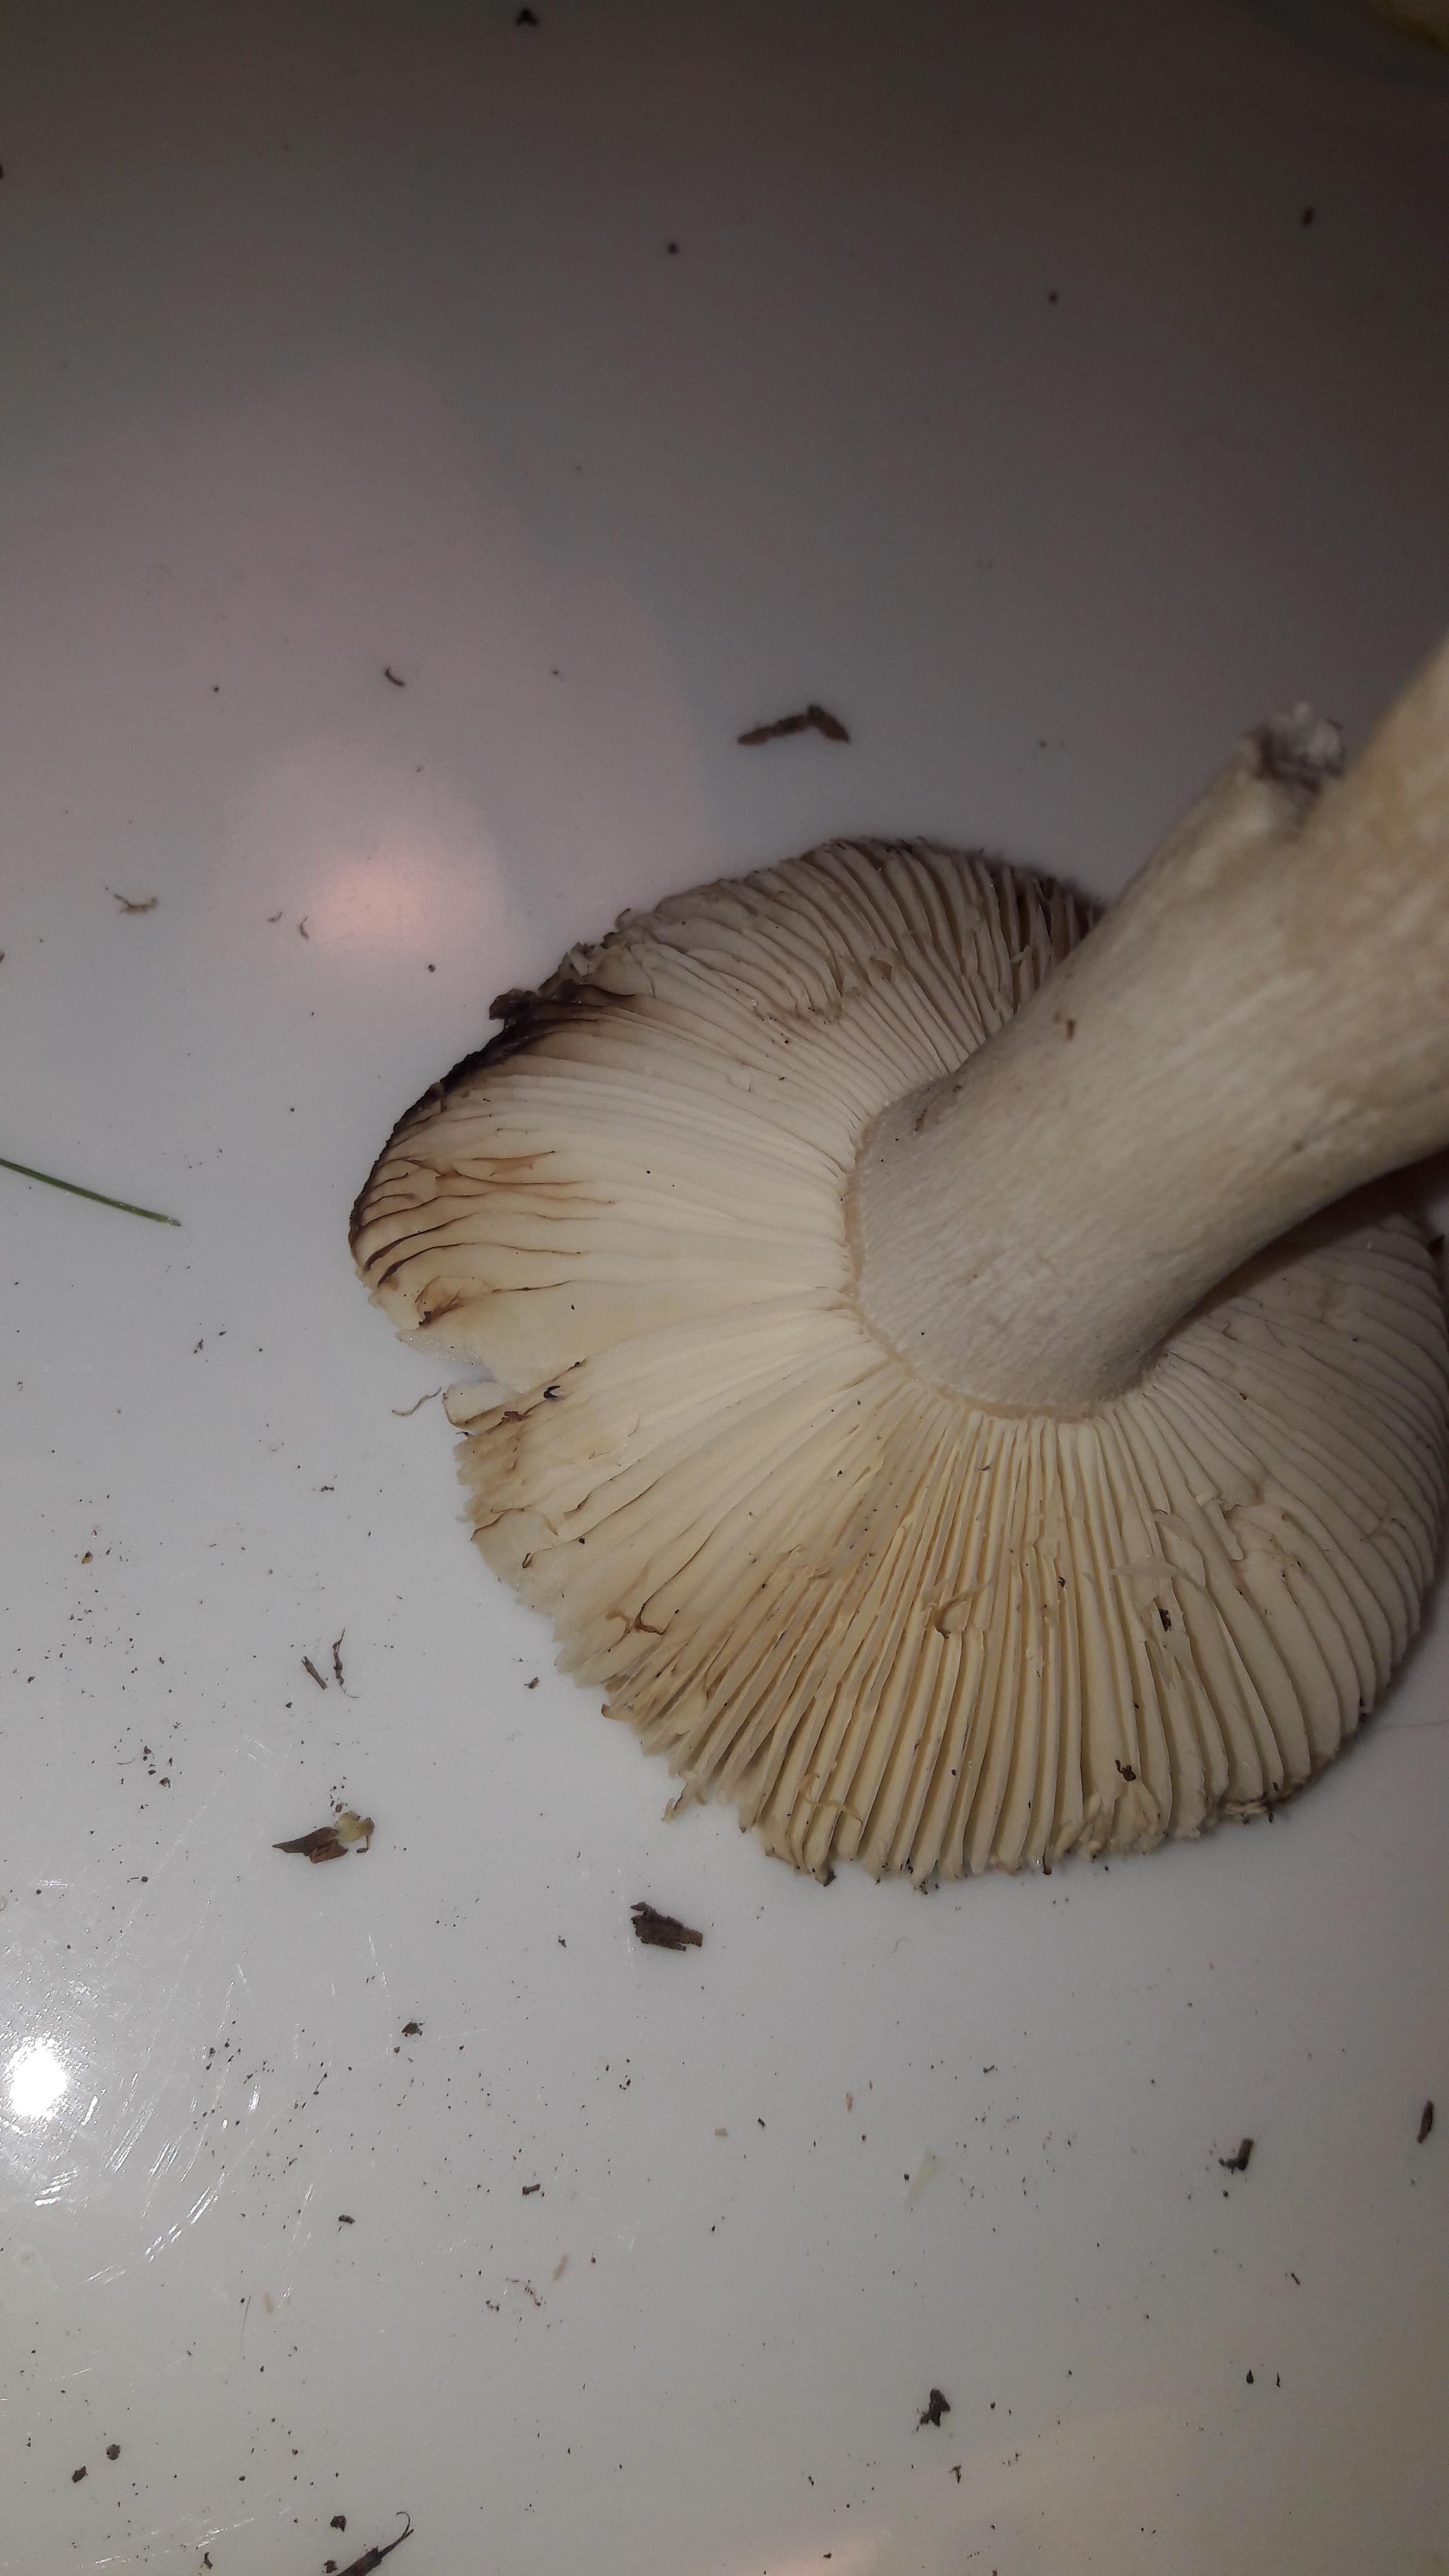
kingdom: Fungi
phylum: Basidiomycota
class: Agaricomycetes
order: Russulales
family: Russulaceae
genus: Russula
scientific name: Russula ochroleuca
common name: okkergul skørhat
